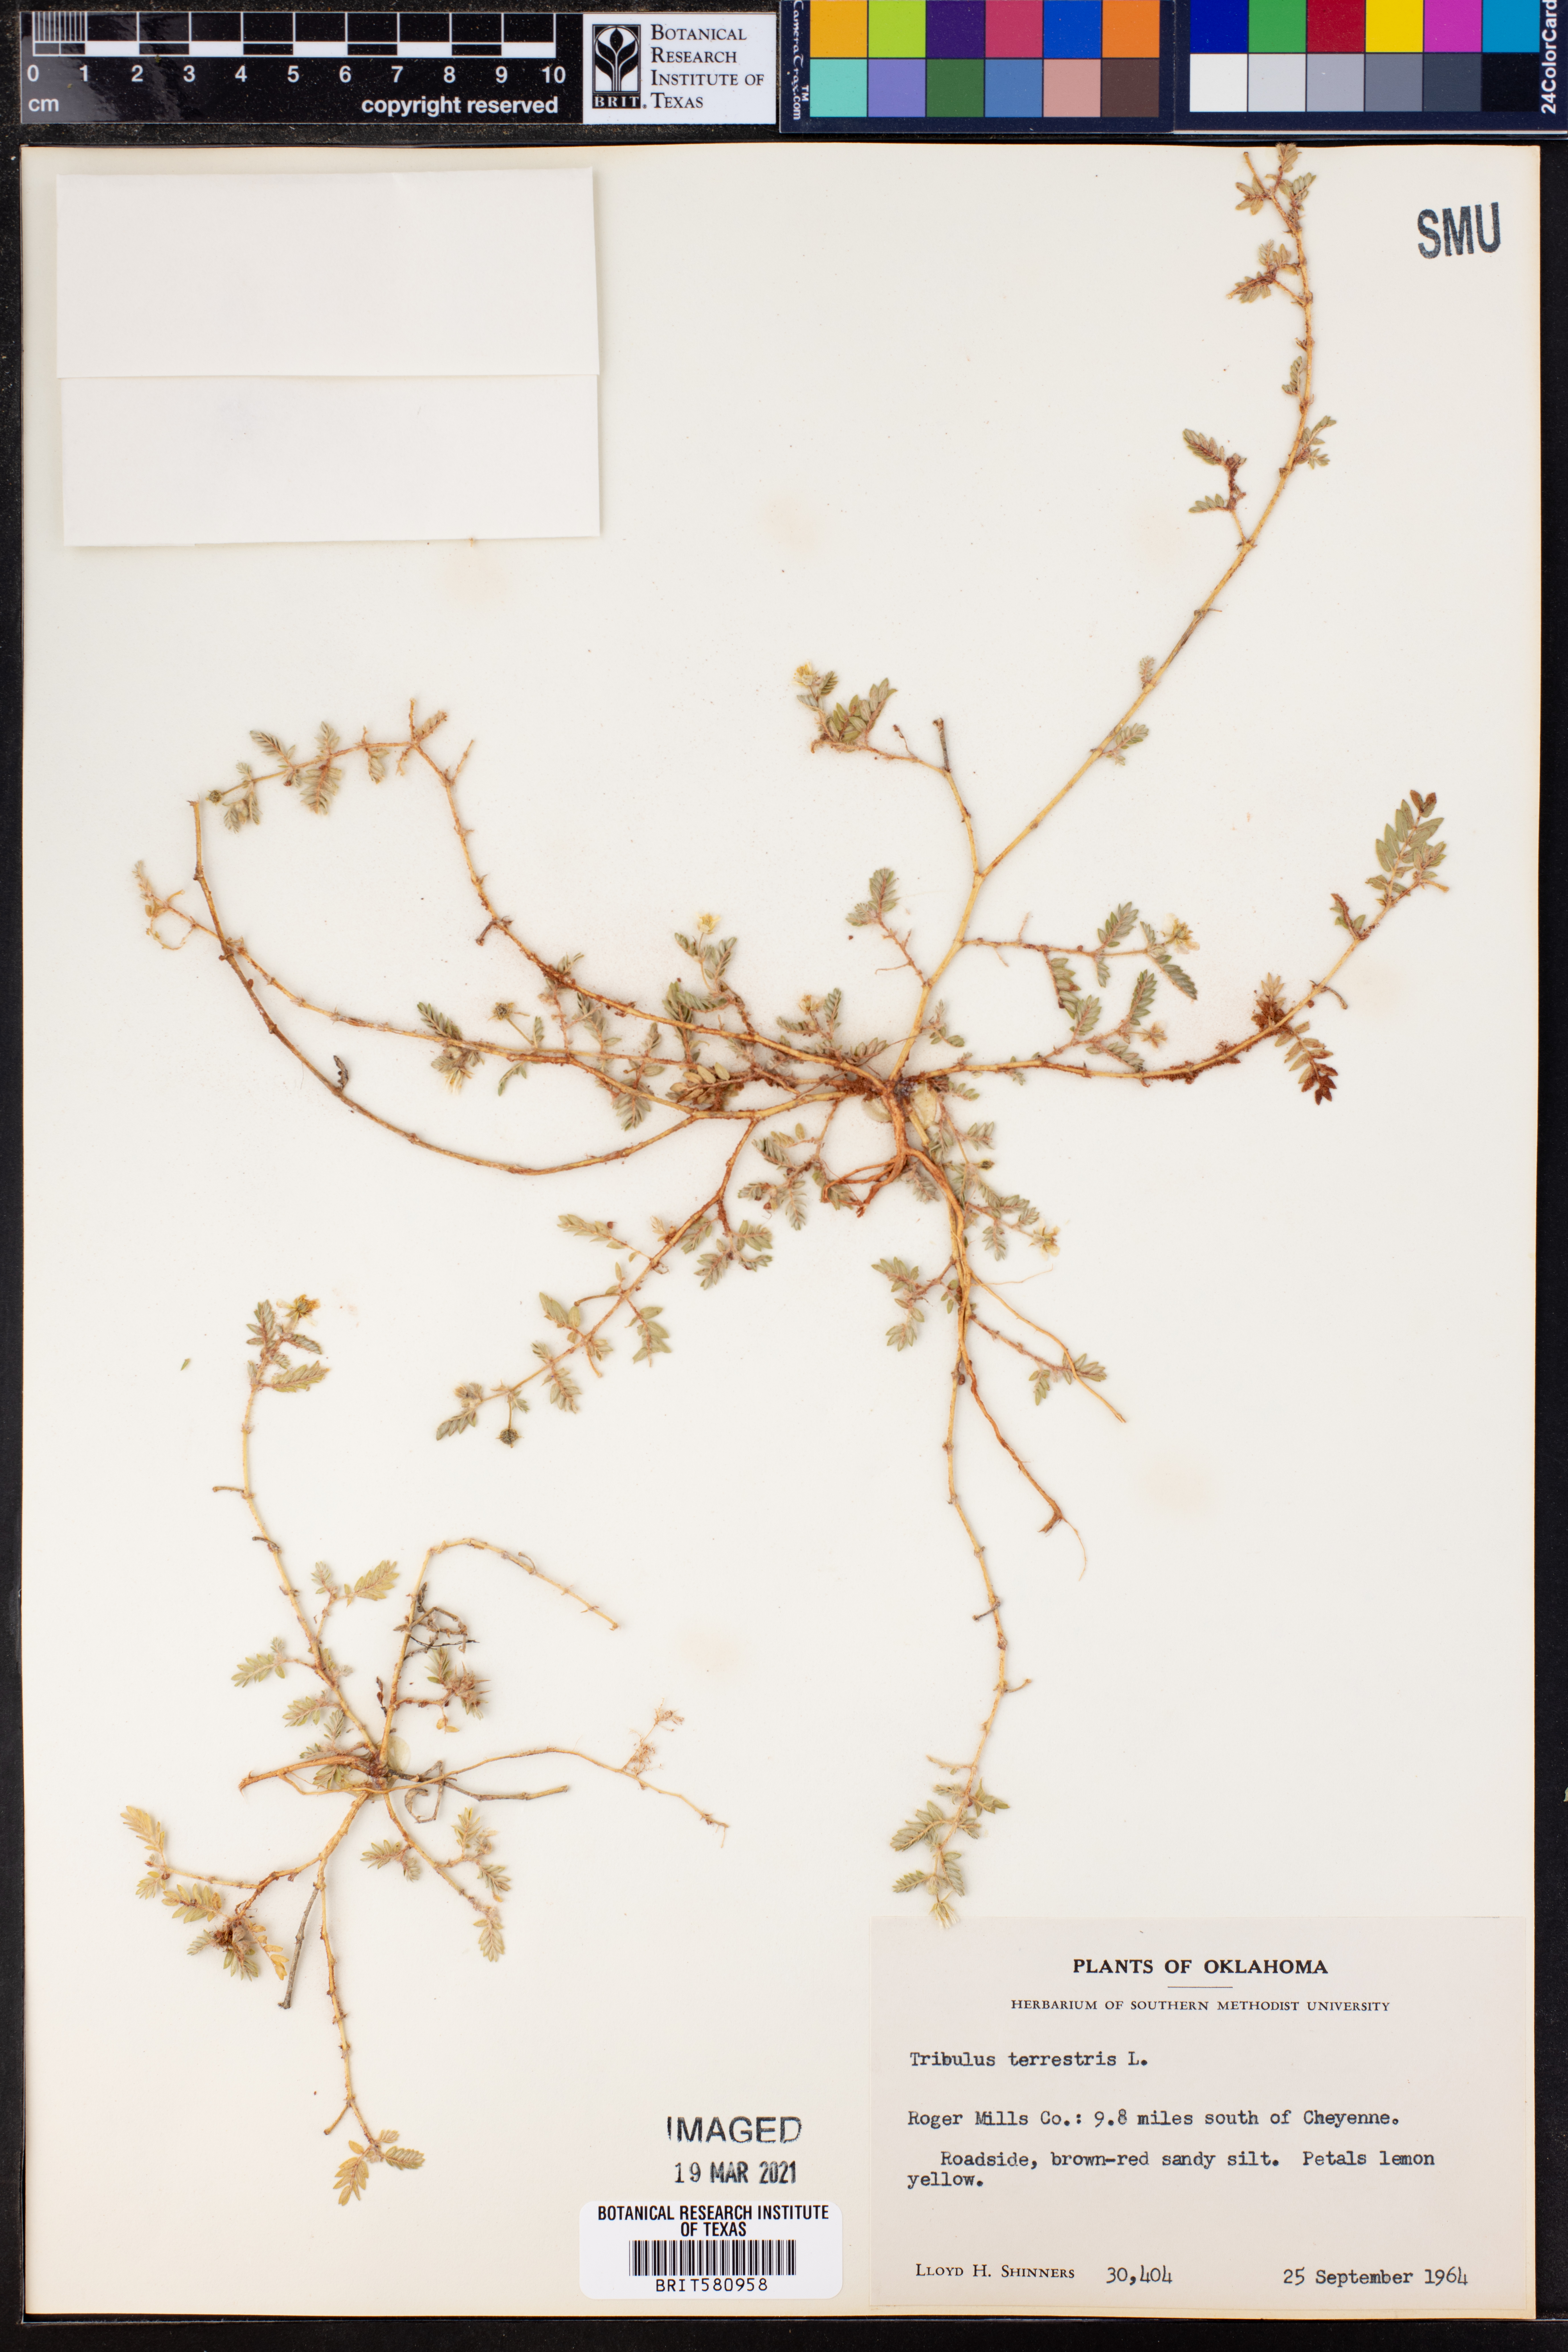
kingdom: Plantae
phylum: Tracheophyta
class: Magnoliopsida
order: Zygophyllales
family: Zygophyllaceae
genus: Tribulus
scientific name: Tribulus terrestris
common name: Puncturevine
